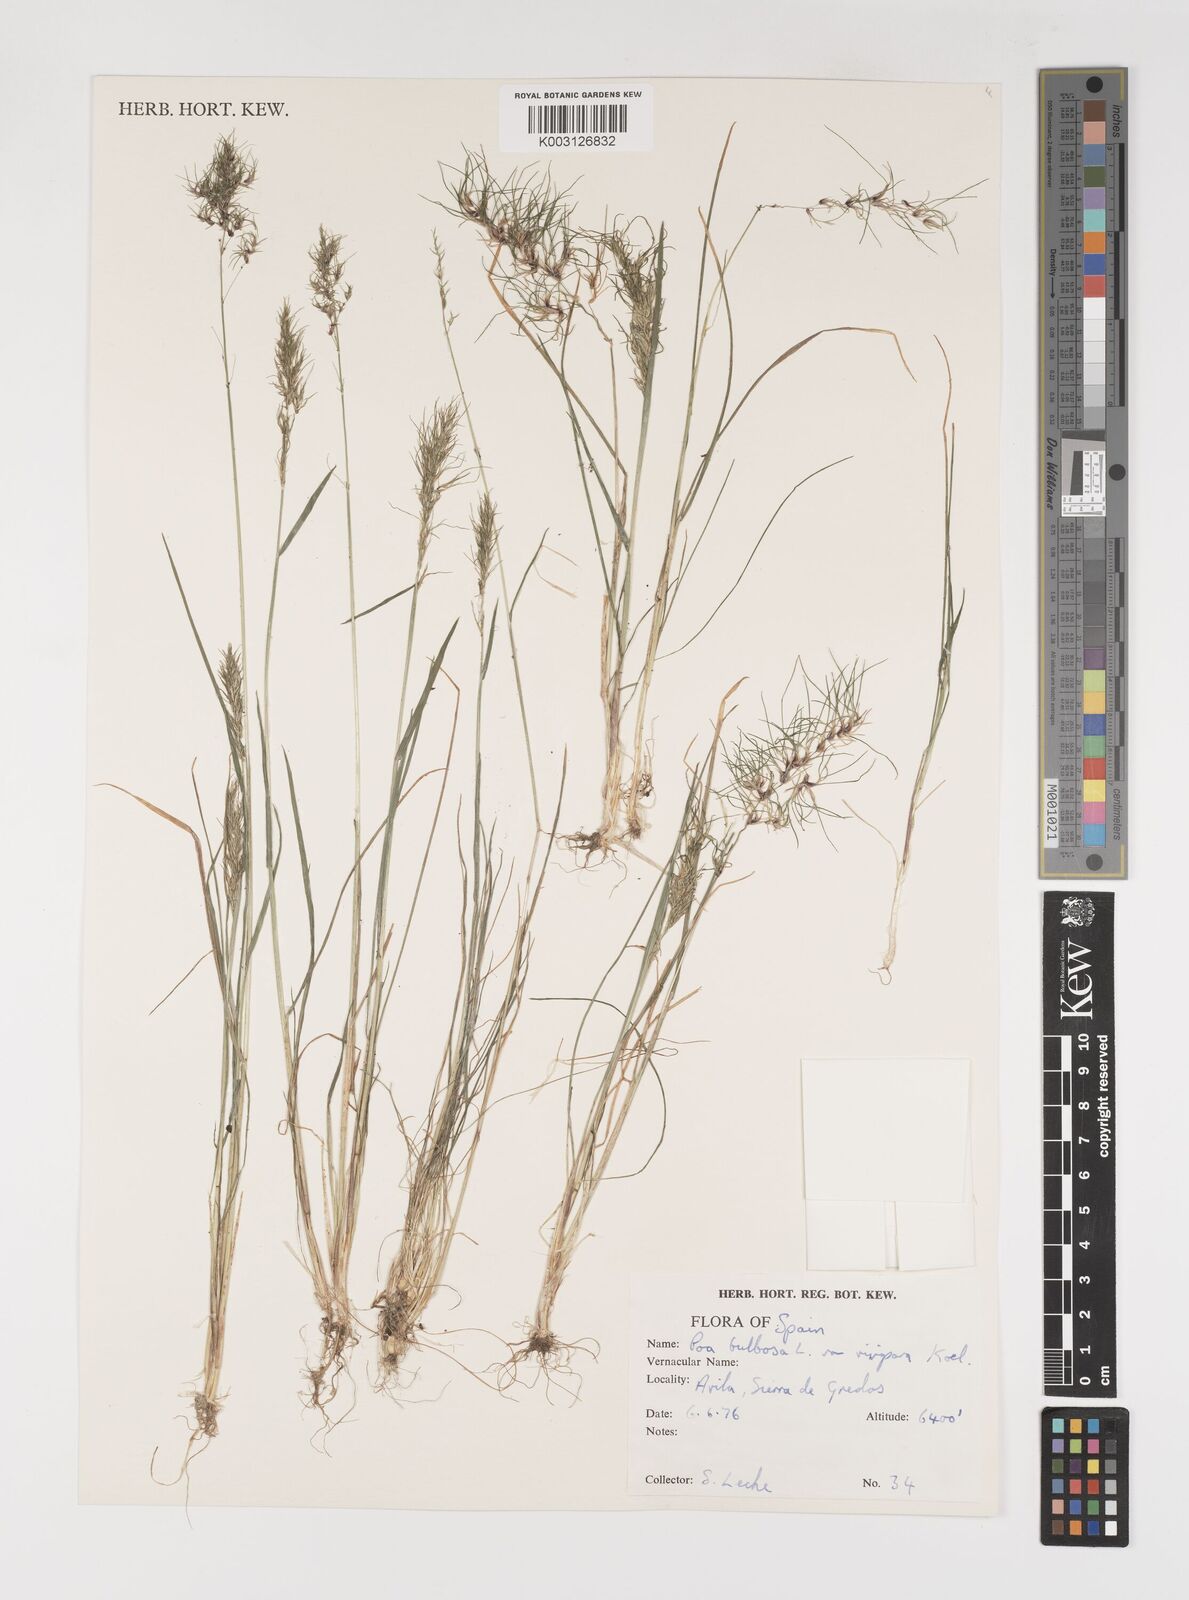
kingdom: Plantae
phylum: Tracheophyta
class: Liliopsida
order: Poales
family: Poaceae
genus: Poa
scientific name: Poa bulbosa
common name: Bulbous bluegrass
